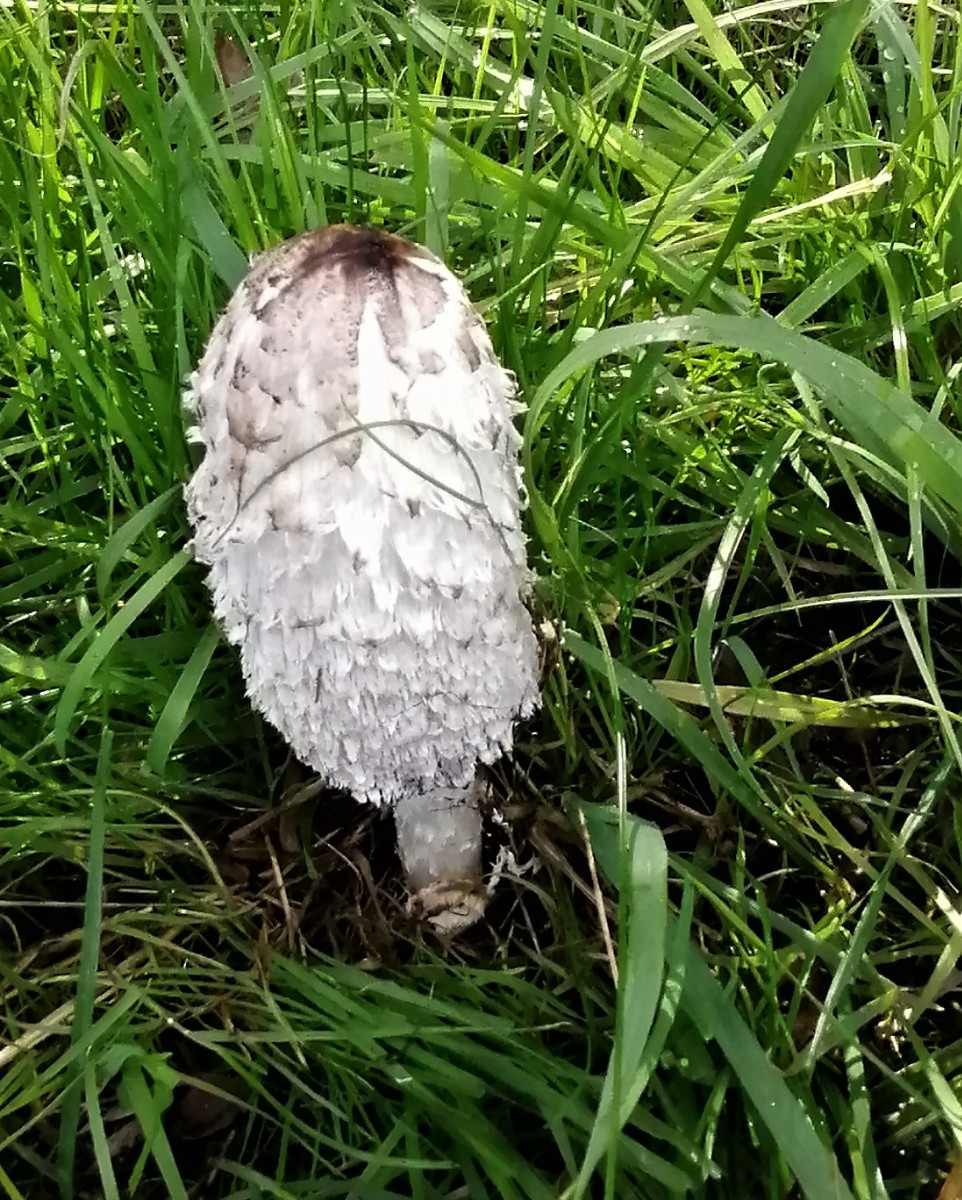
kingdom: Fungi
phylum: Basidiomycota
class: Agaricomycetes
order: Agaricales
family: Agaricaceae
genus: Coprinus
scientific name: Coprinus comatus
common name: stor parykhat
